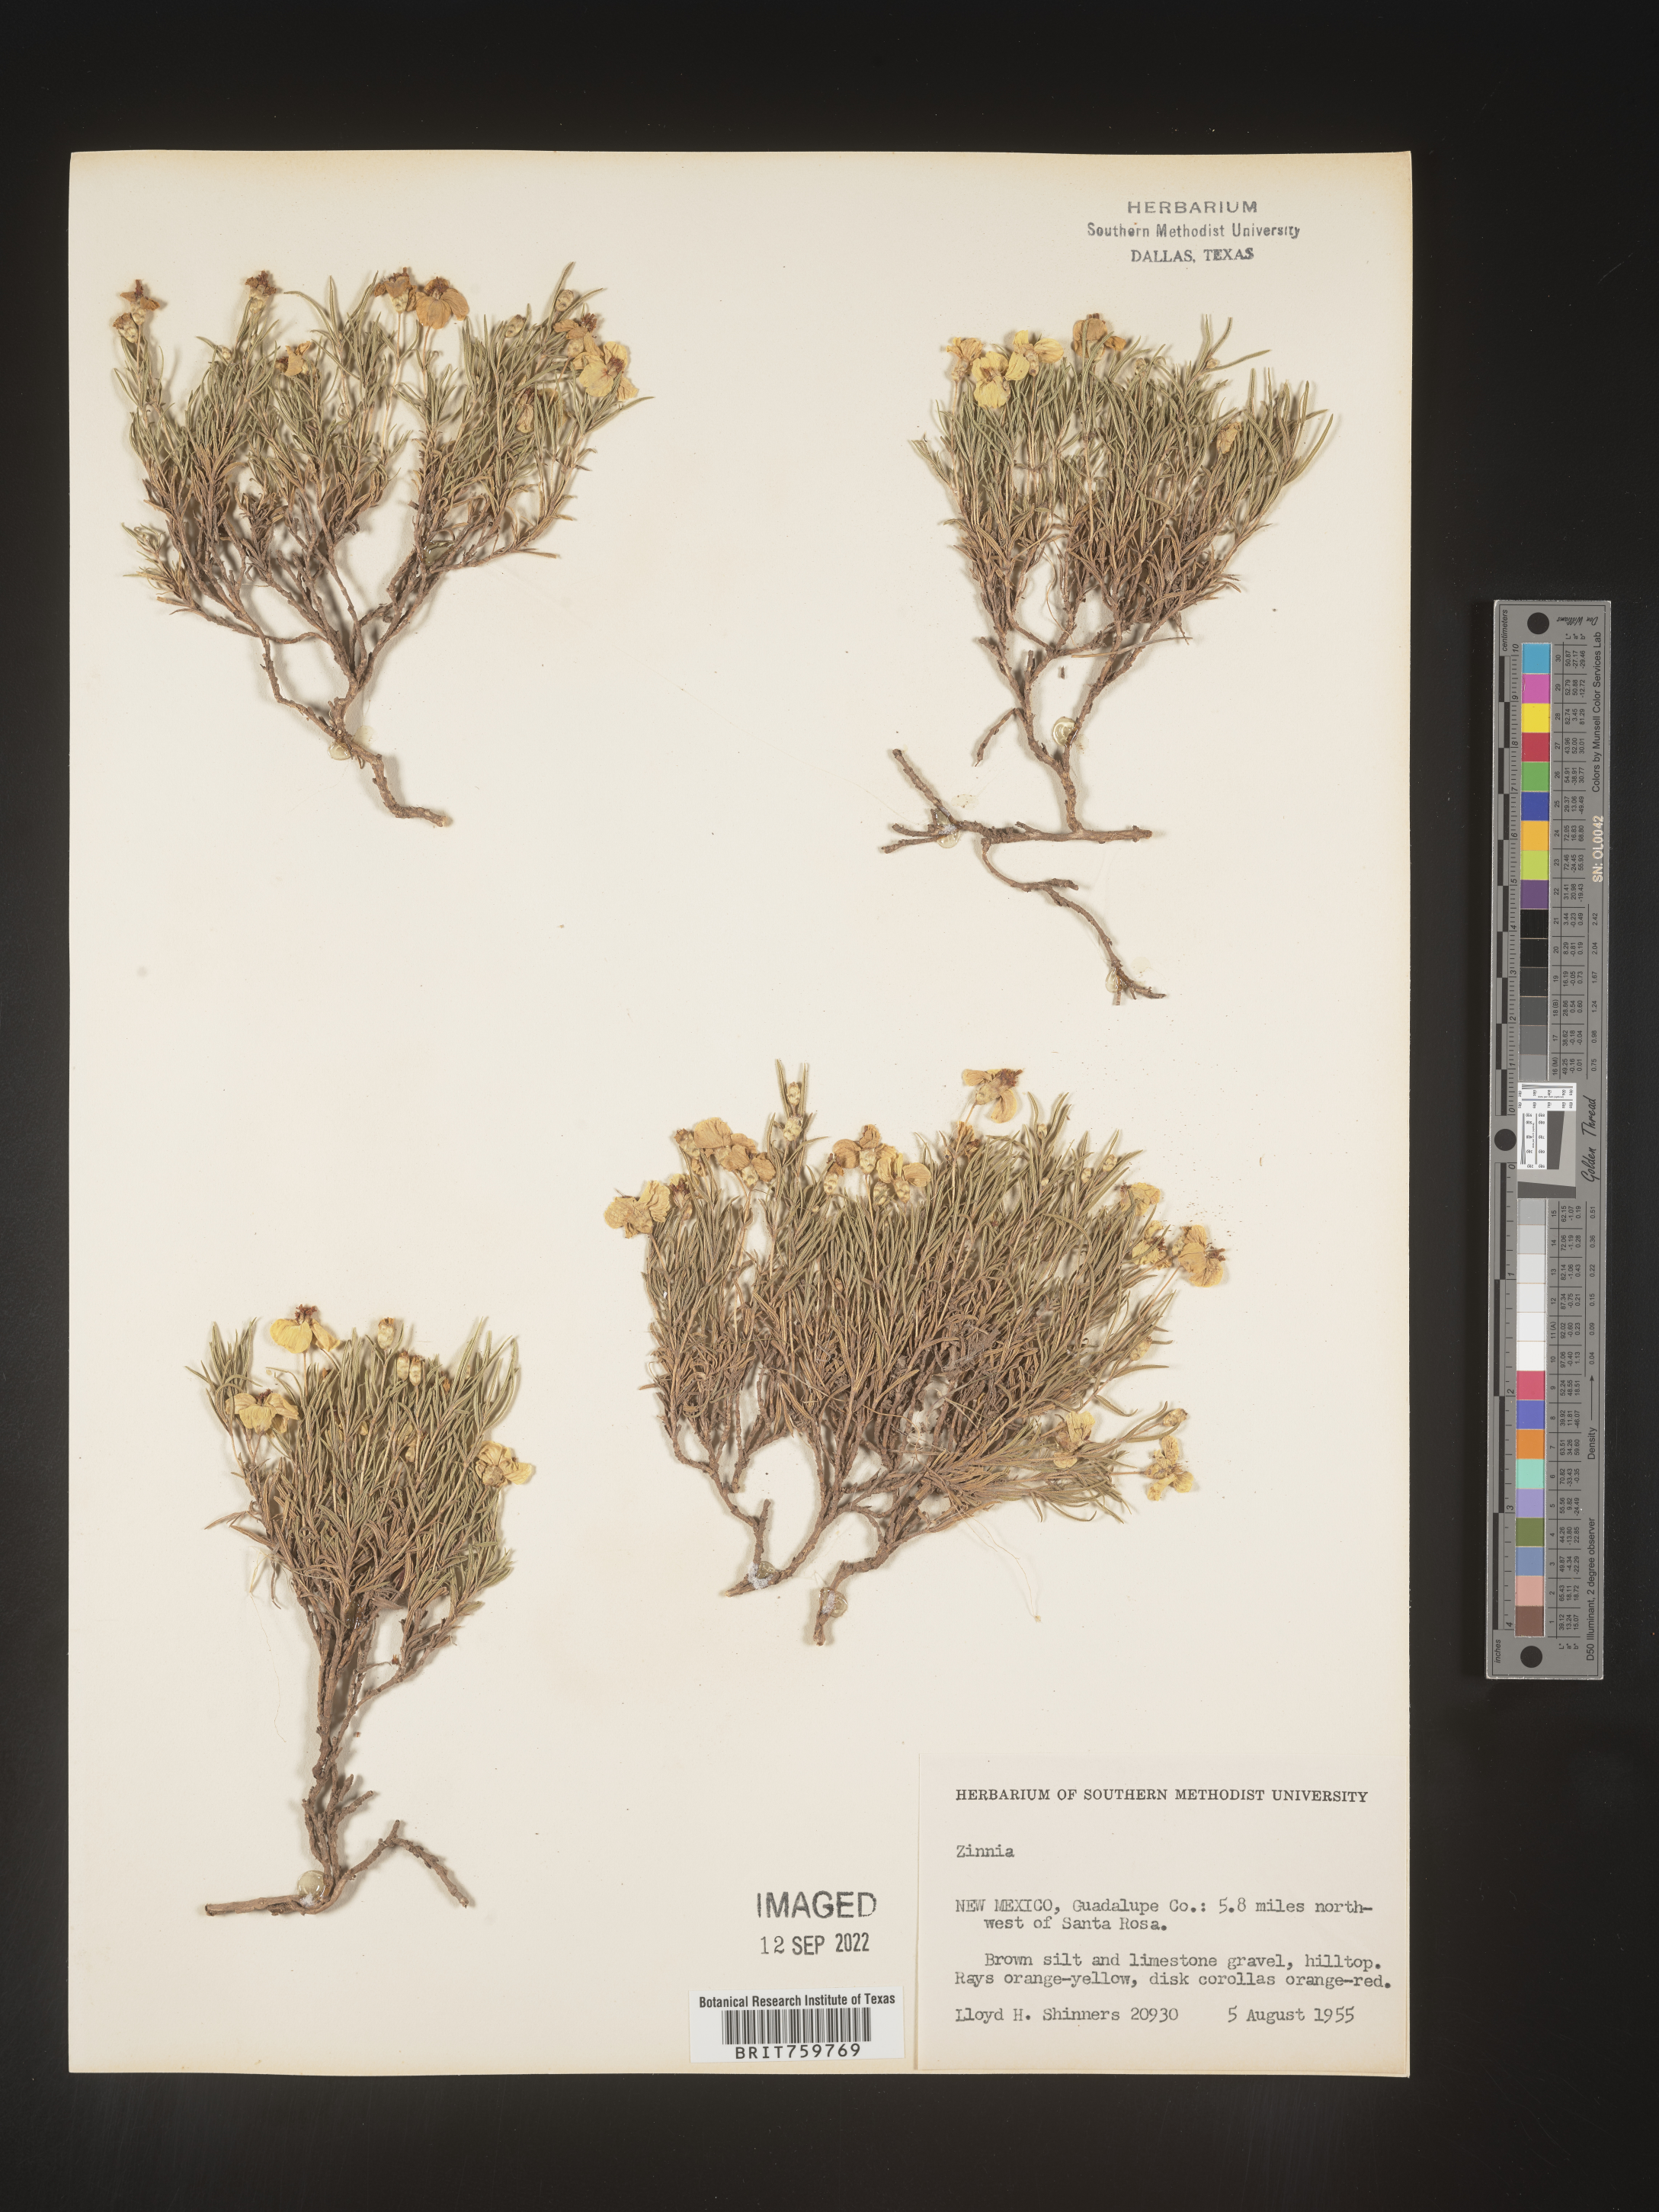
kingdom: Plantae
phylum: Tracheophyta
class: Magnoliopsida
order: Asterales
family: Asteraceae
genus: Zinnia
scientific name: Zinnia grandiflora
